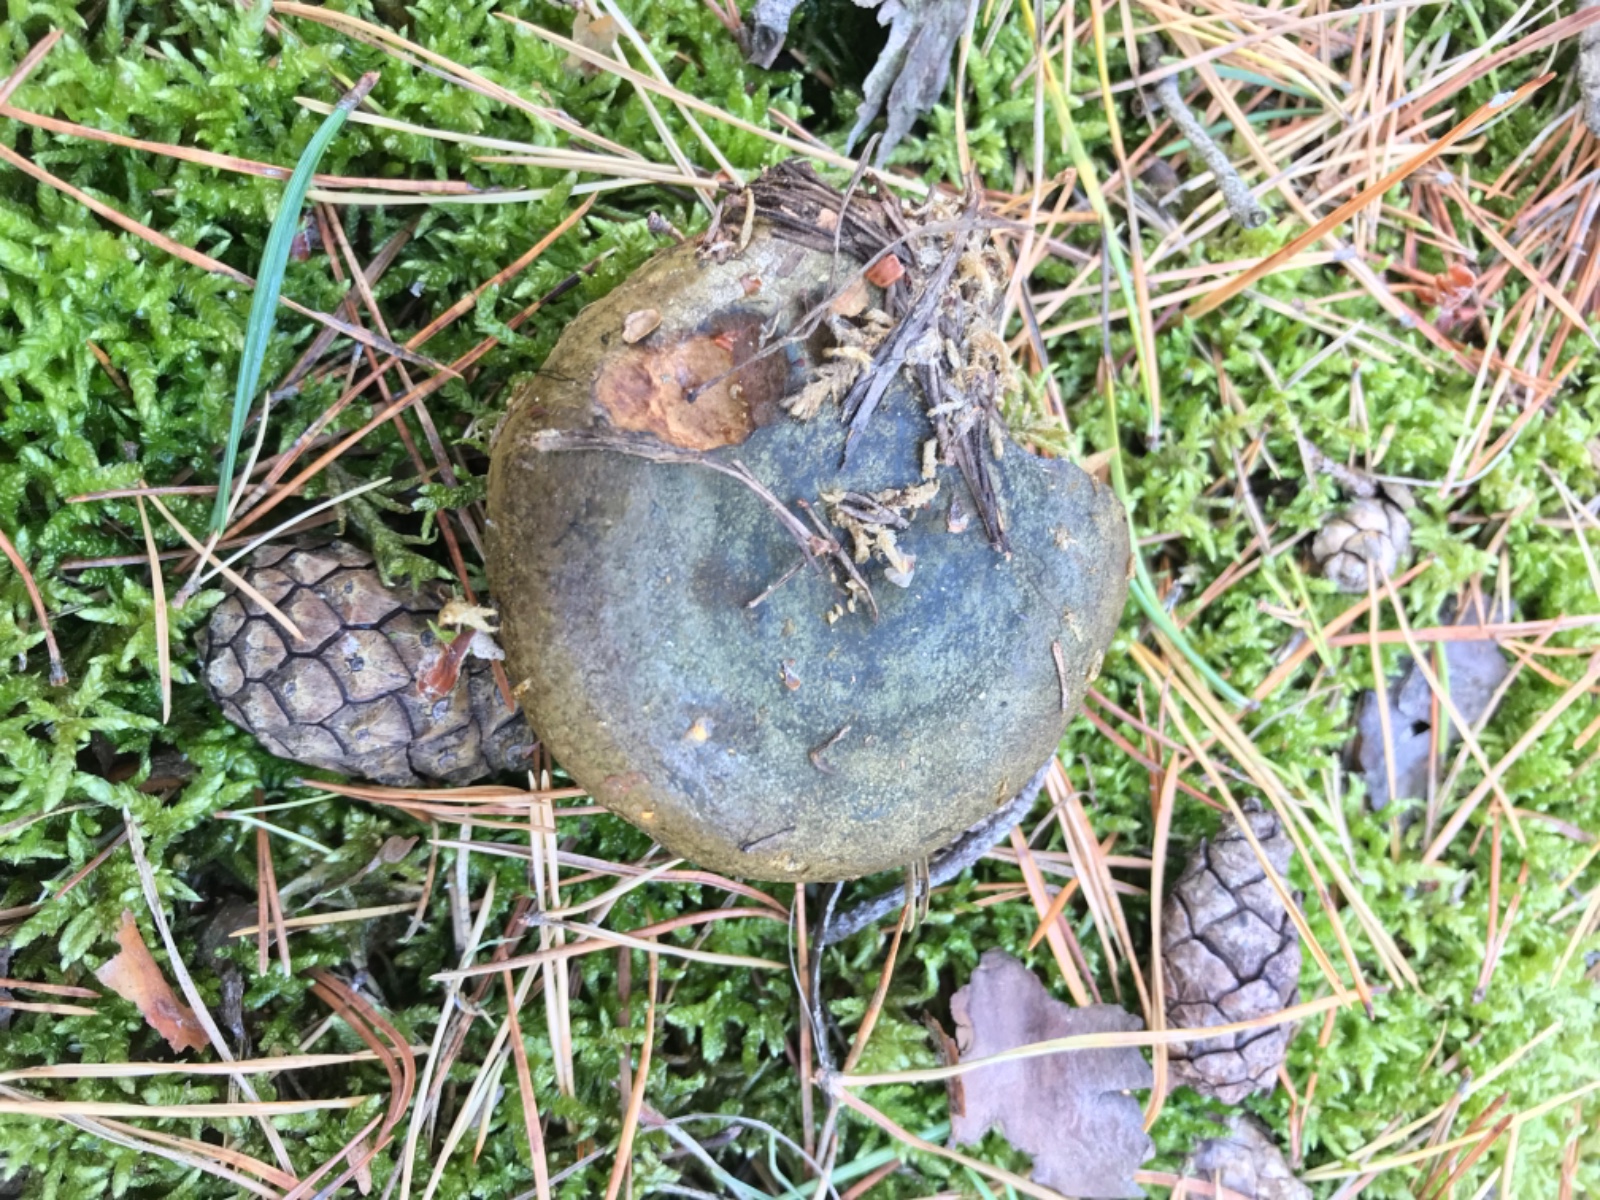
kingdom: Fungi
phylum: Basidiomycota
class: Agaricomycetes
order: Russulales
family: Russulaceae
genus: Lactarius
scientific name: Lactarius necator
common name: manddraber-mælkehat
